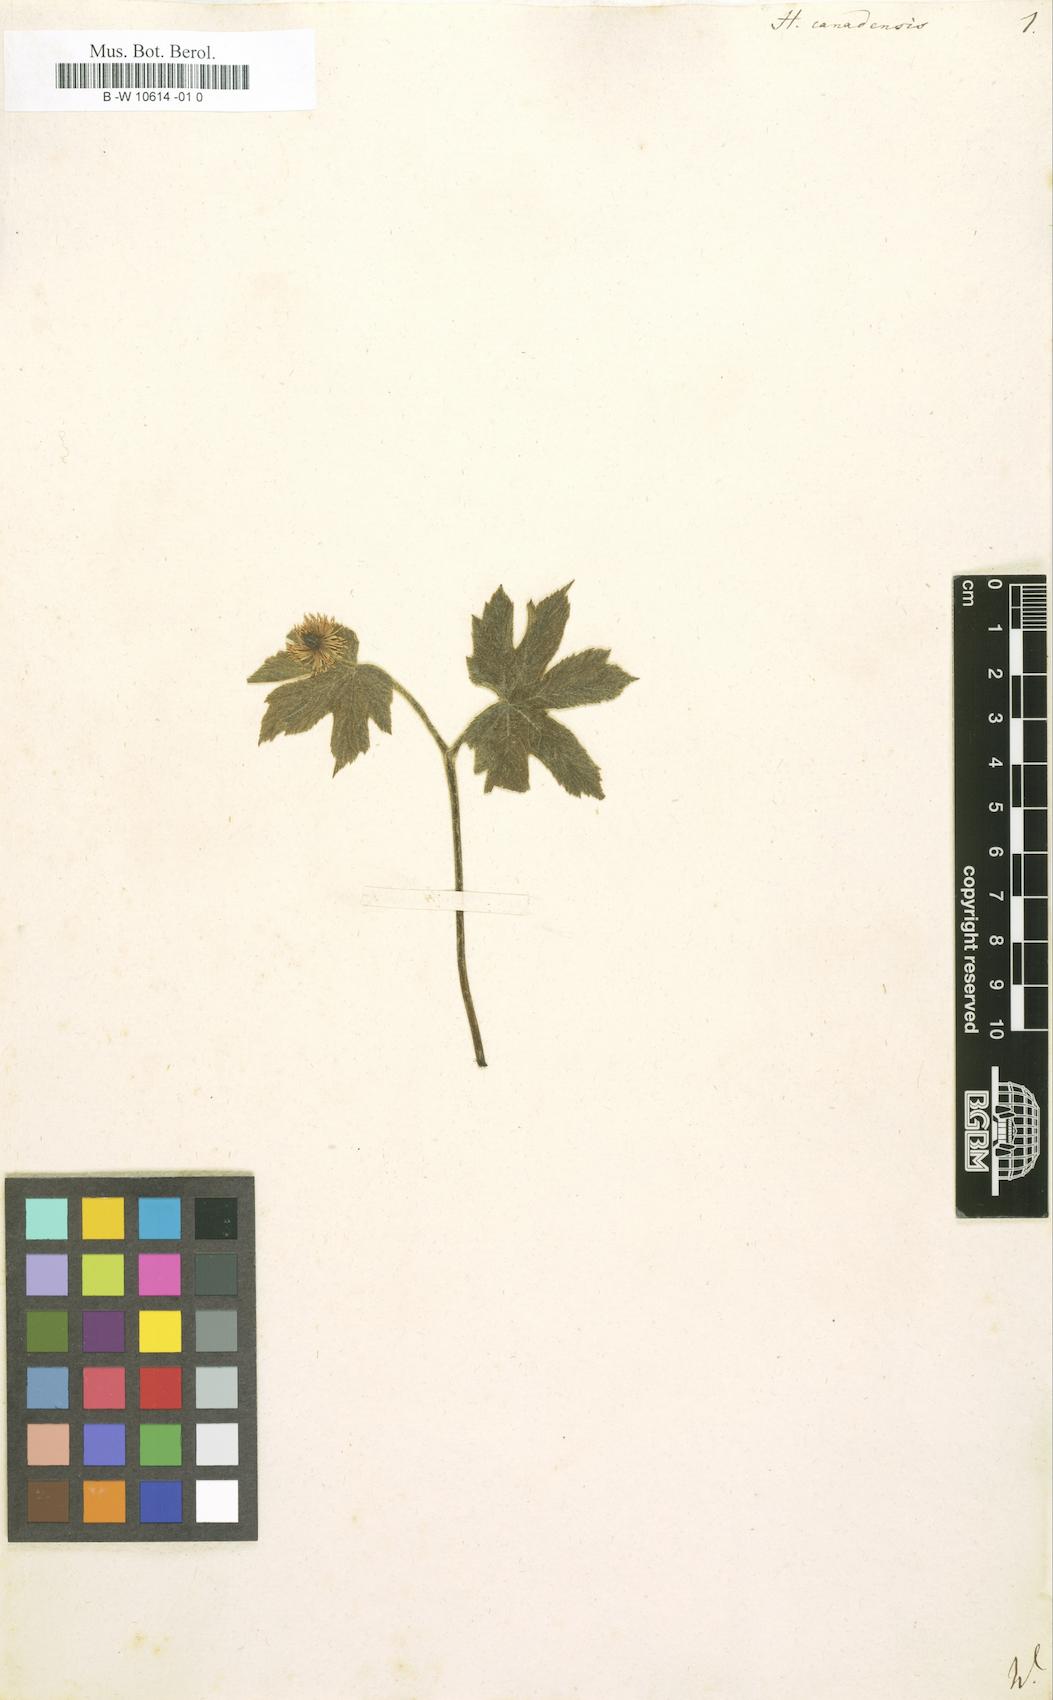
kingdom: Plantae
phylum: Tracheophyta
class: Magnoliopsida
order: Ranunculales
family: Ranunculaceae
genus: Hydrastis
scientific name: Hydrastis canadensis
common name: Goldenseal
